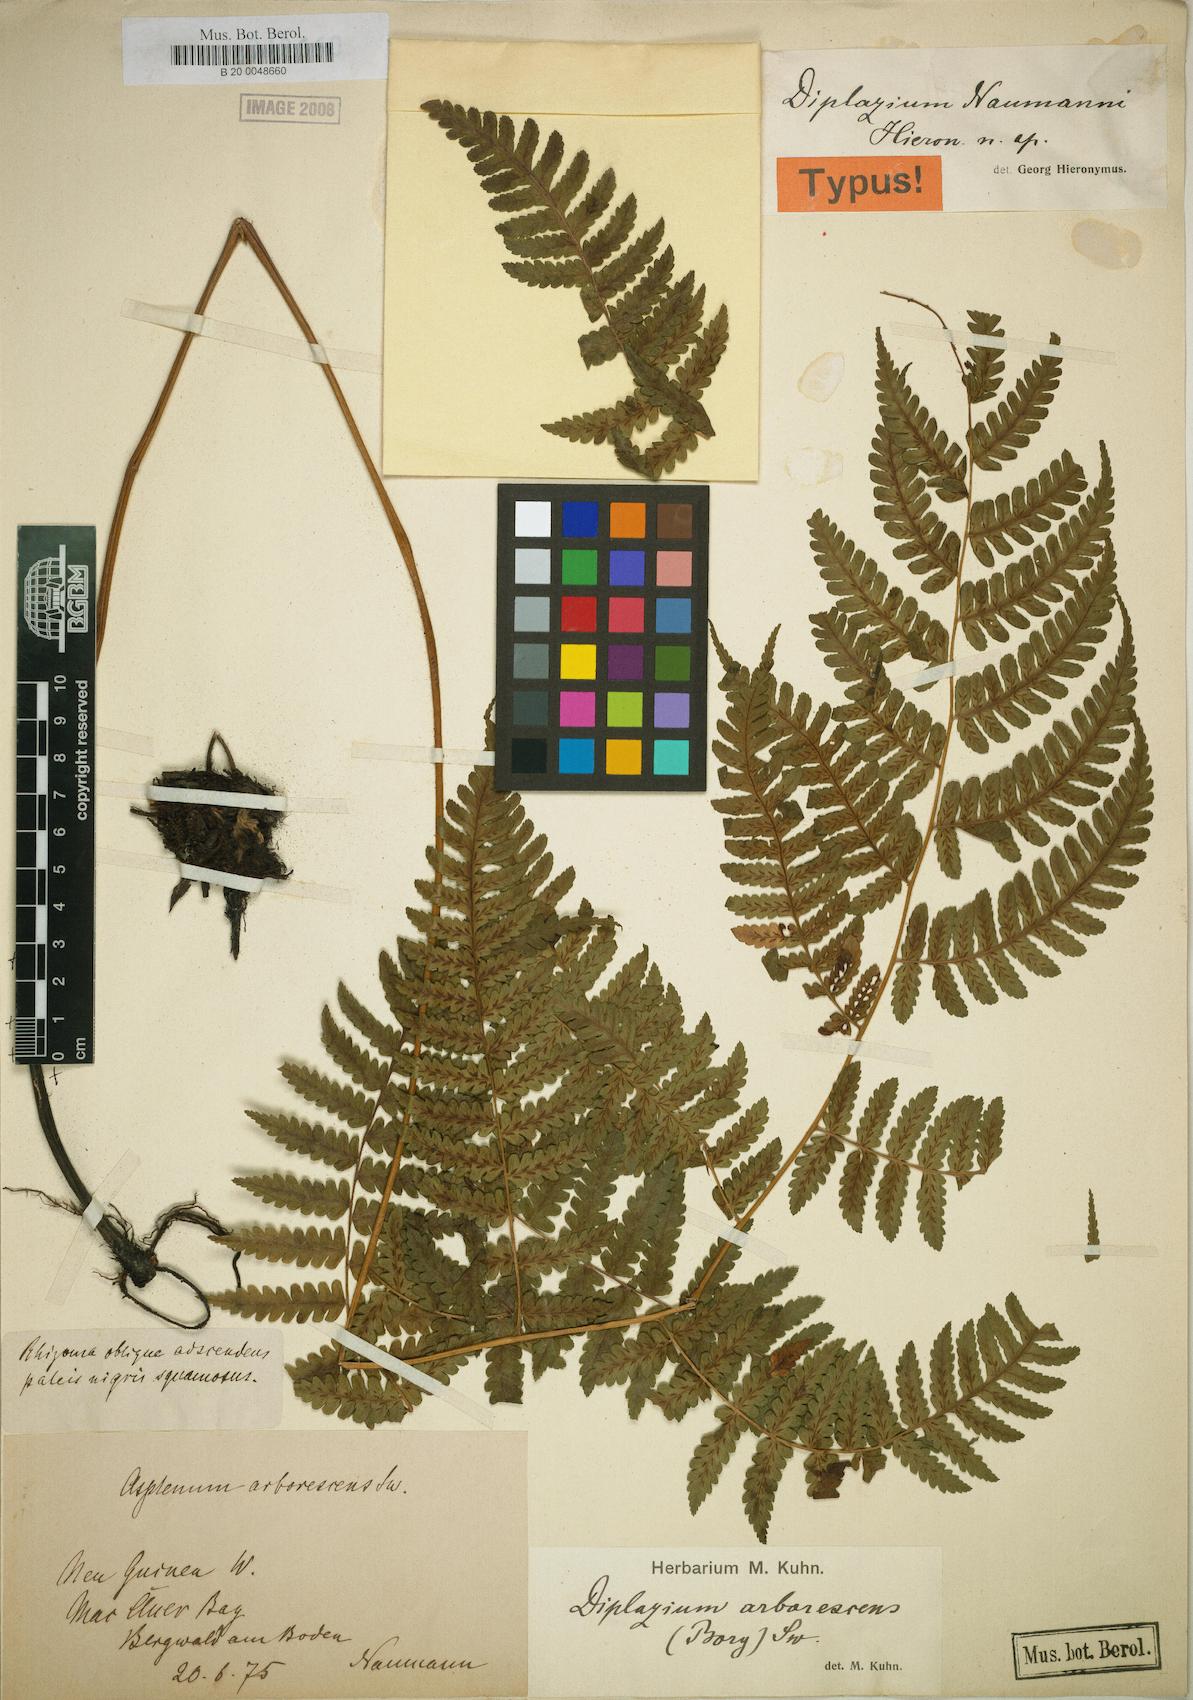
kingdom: Plantae
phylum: Tracheophyta
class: Polypodiopsida
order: Polypodiales
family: Athyriaceae
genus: Diplazium
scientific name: Diplazium prolongatum
